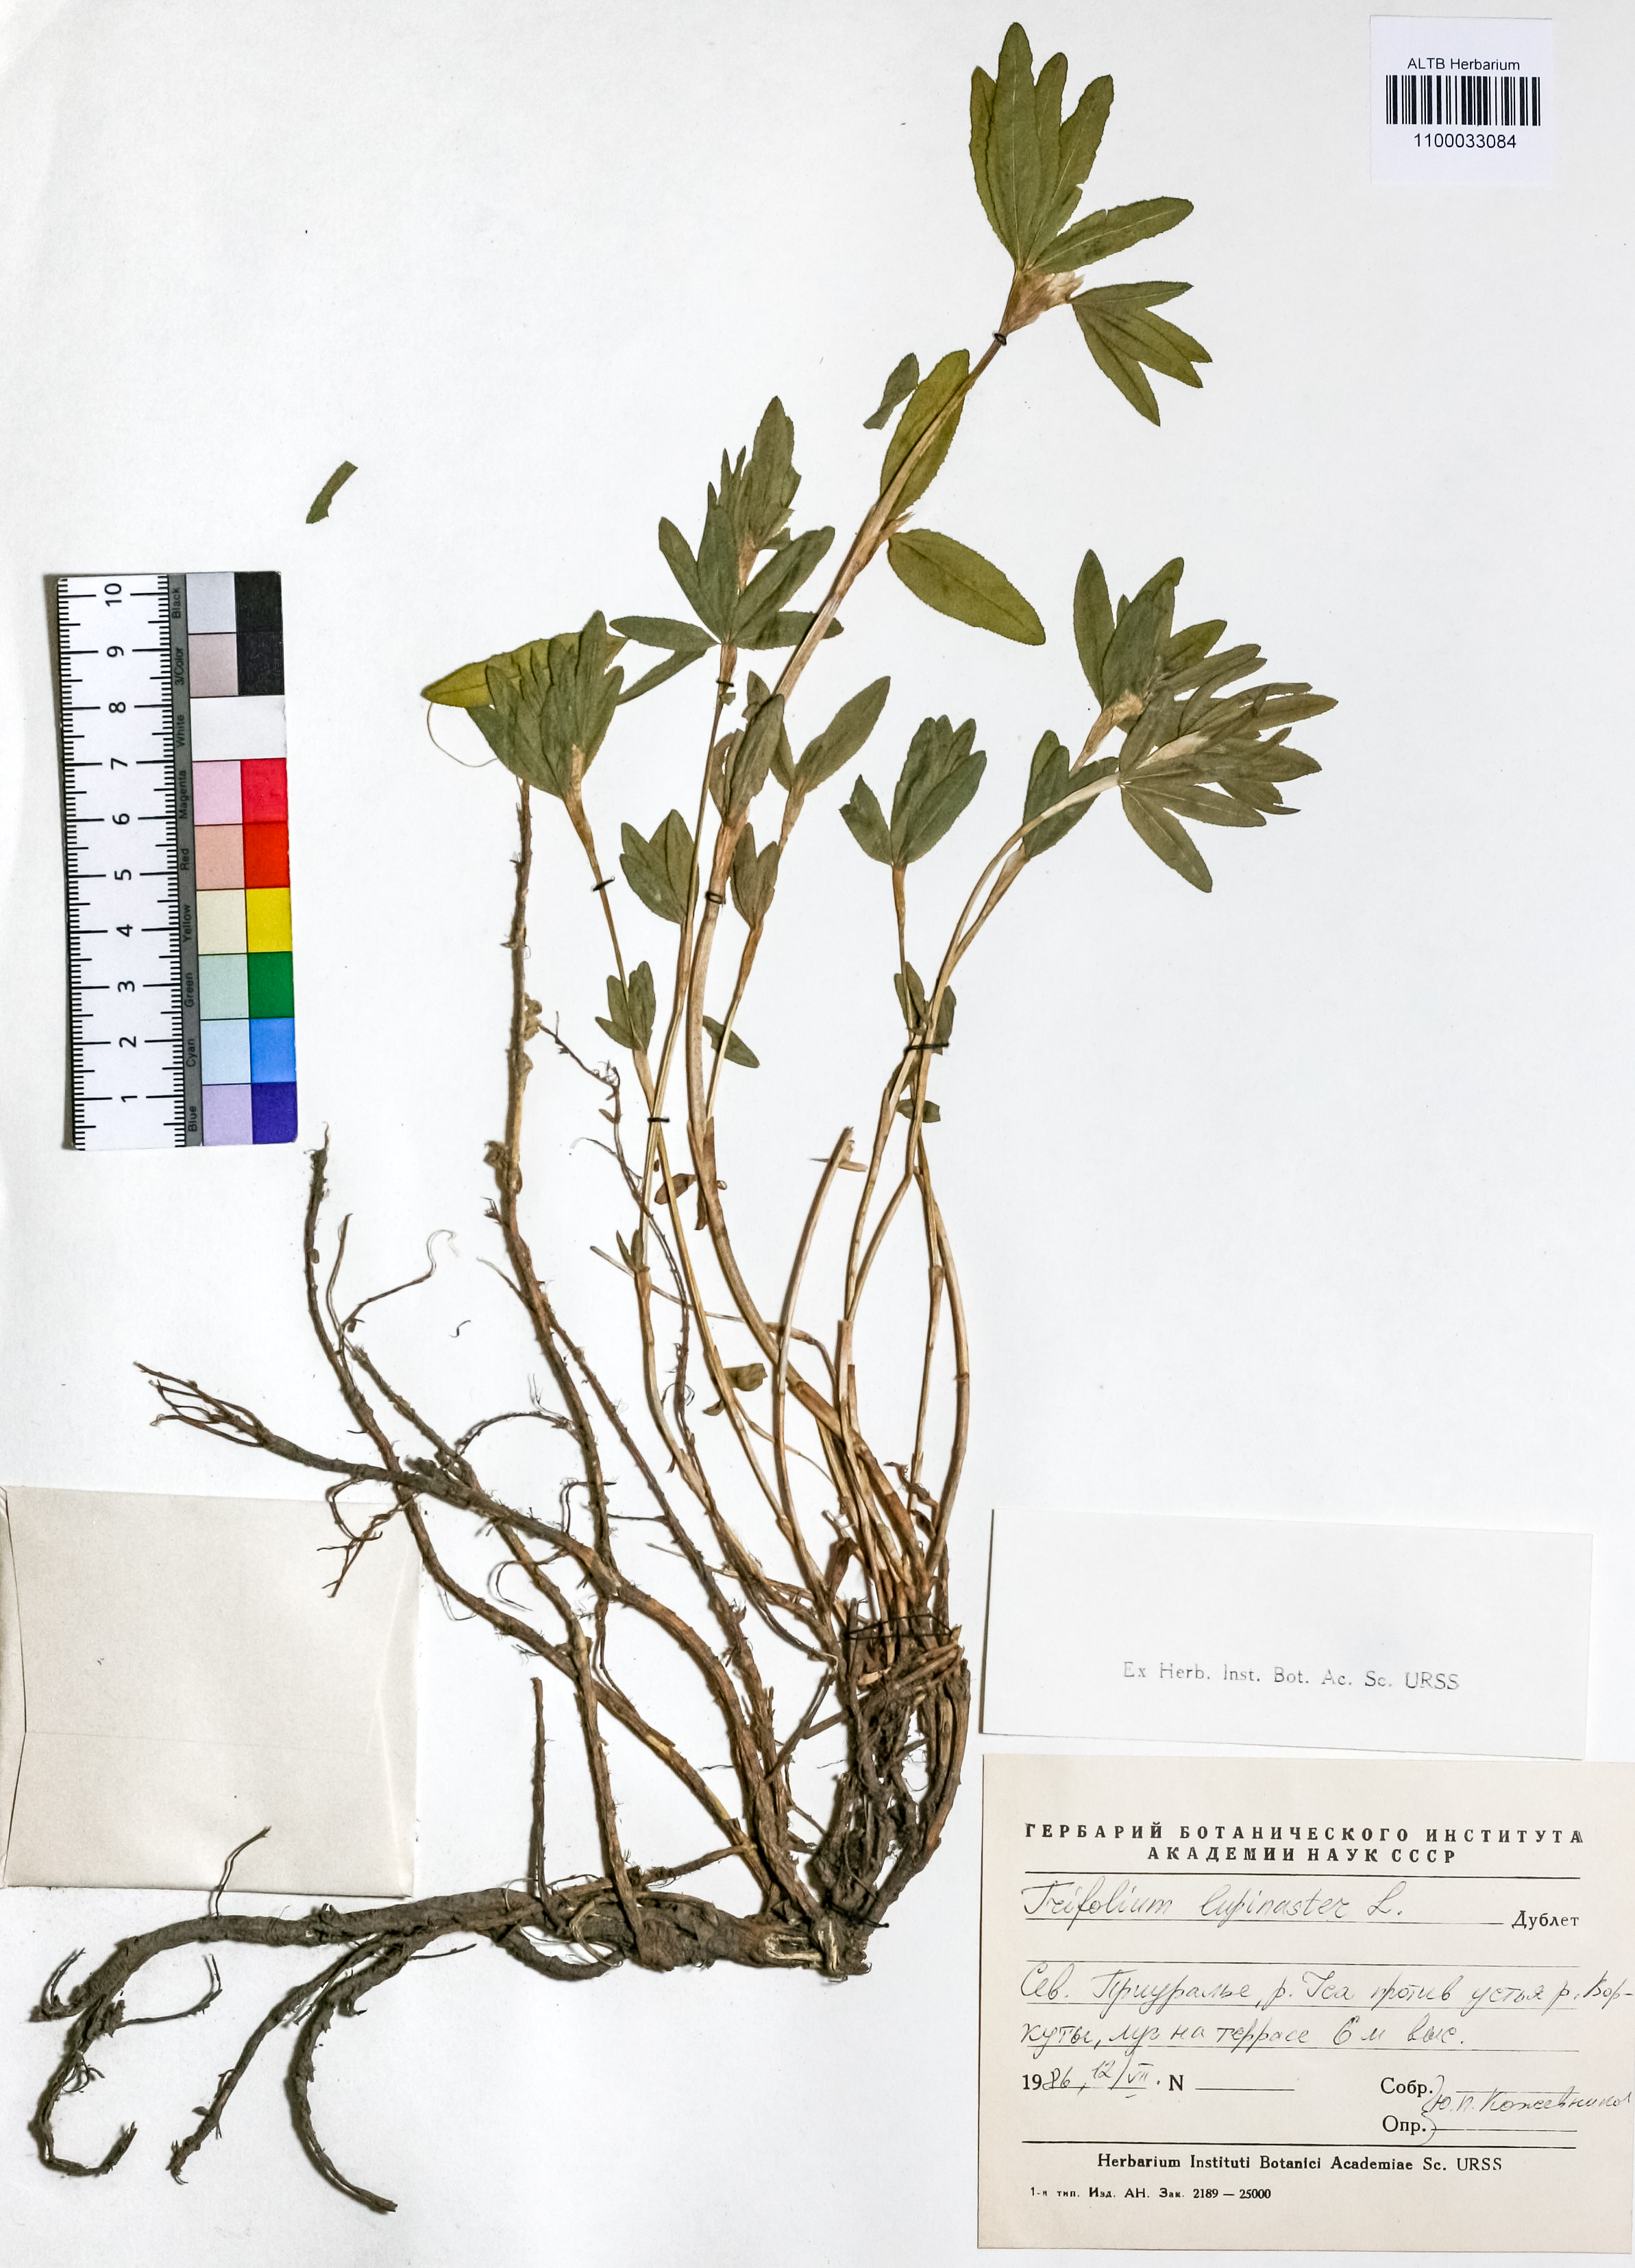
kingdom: Plantae
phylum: Tracheophyta
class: Magnoliopsida
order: Fabales
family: Fabaceae
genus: Trifolium
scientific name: Trifolium lupinaster
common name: Lupine clover
